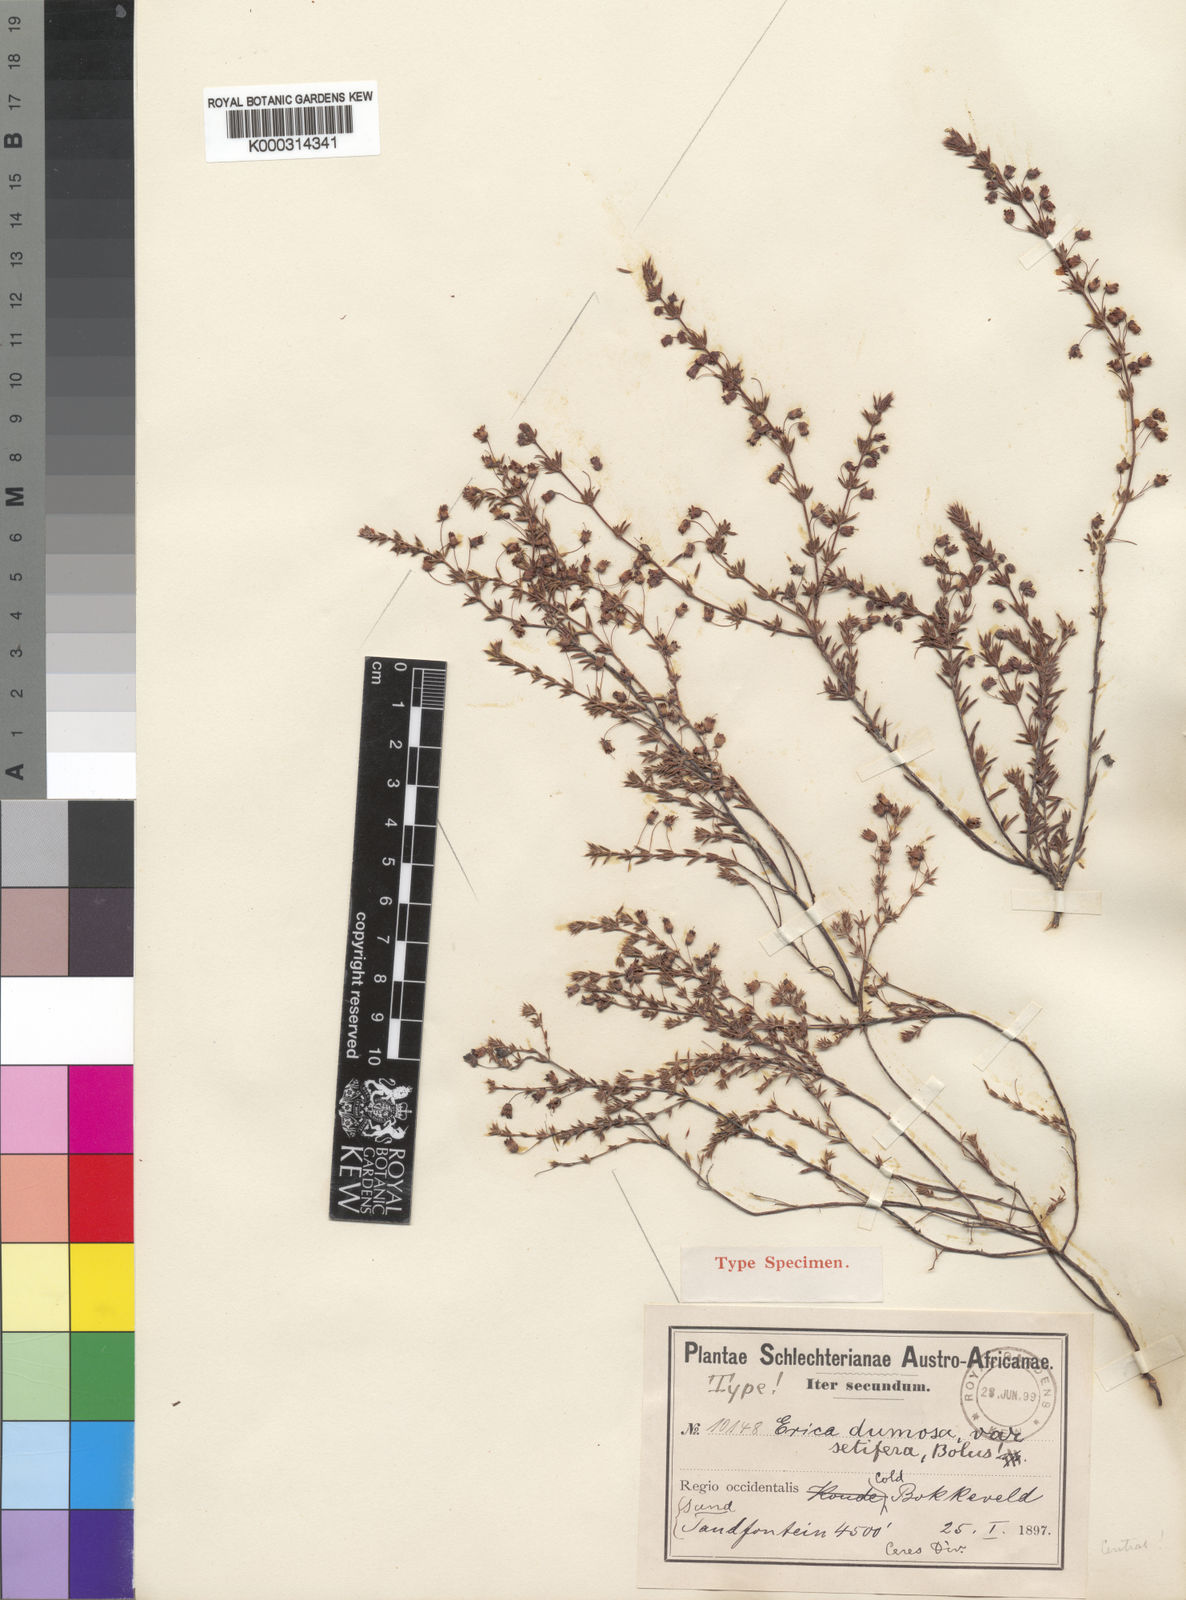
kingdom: Plantae
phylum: Tracheophyta
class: Magnoliopsida
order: Ericales
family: Ericaceae
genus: Erica
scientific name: Erica
